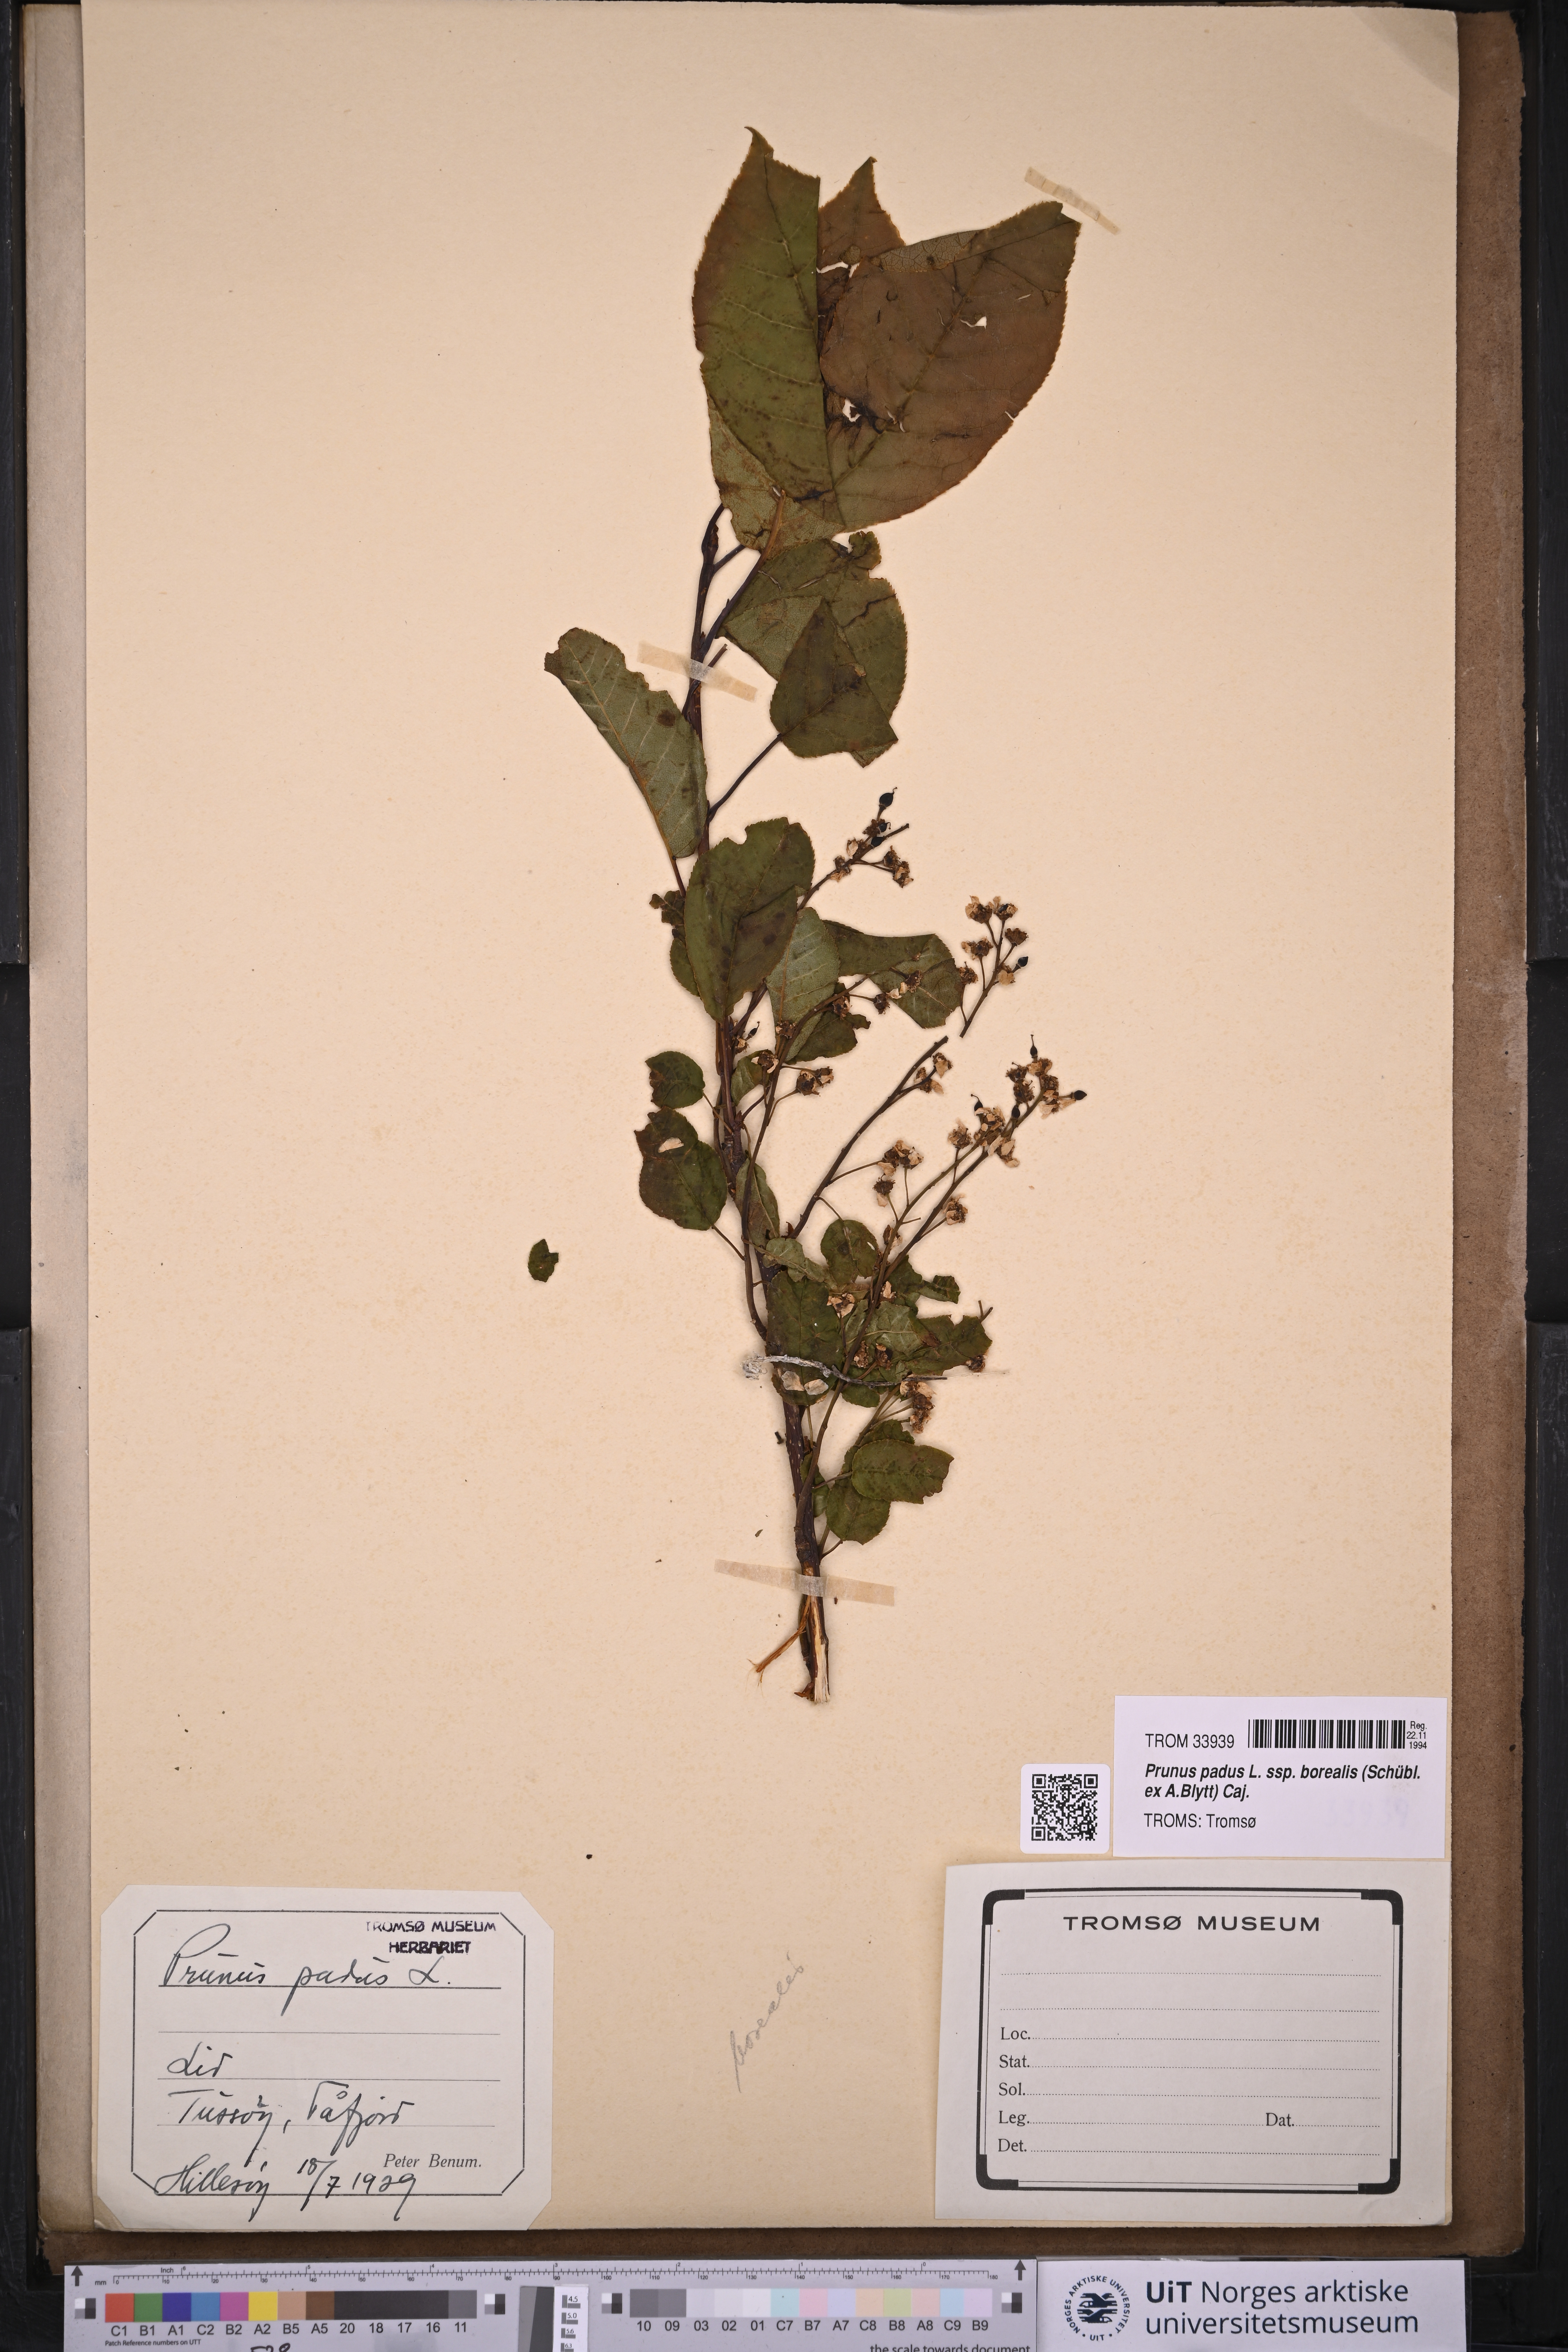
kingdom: Plantae
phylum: Tracheophyta
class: Magnoliopsida
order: Rosales
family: Rosaceae
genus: Prunus
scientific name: Prunus padus
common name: Bird cherry
